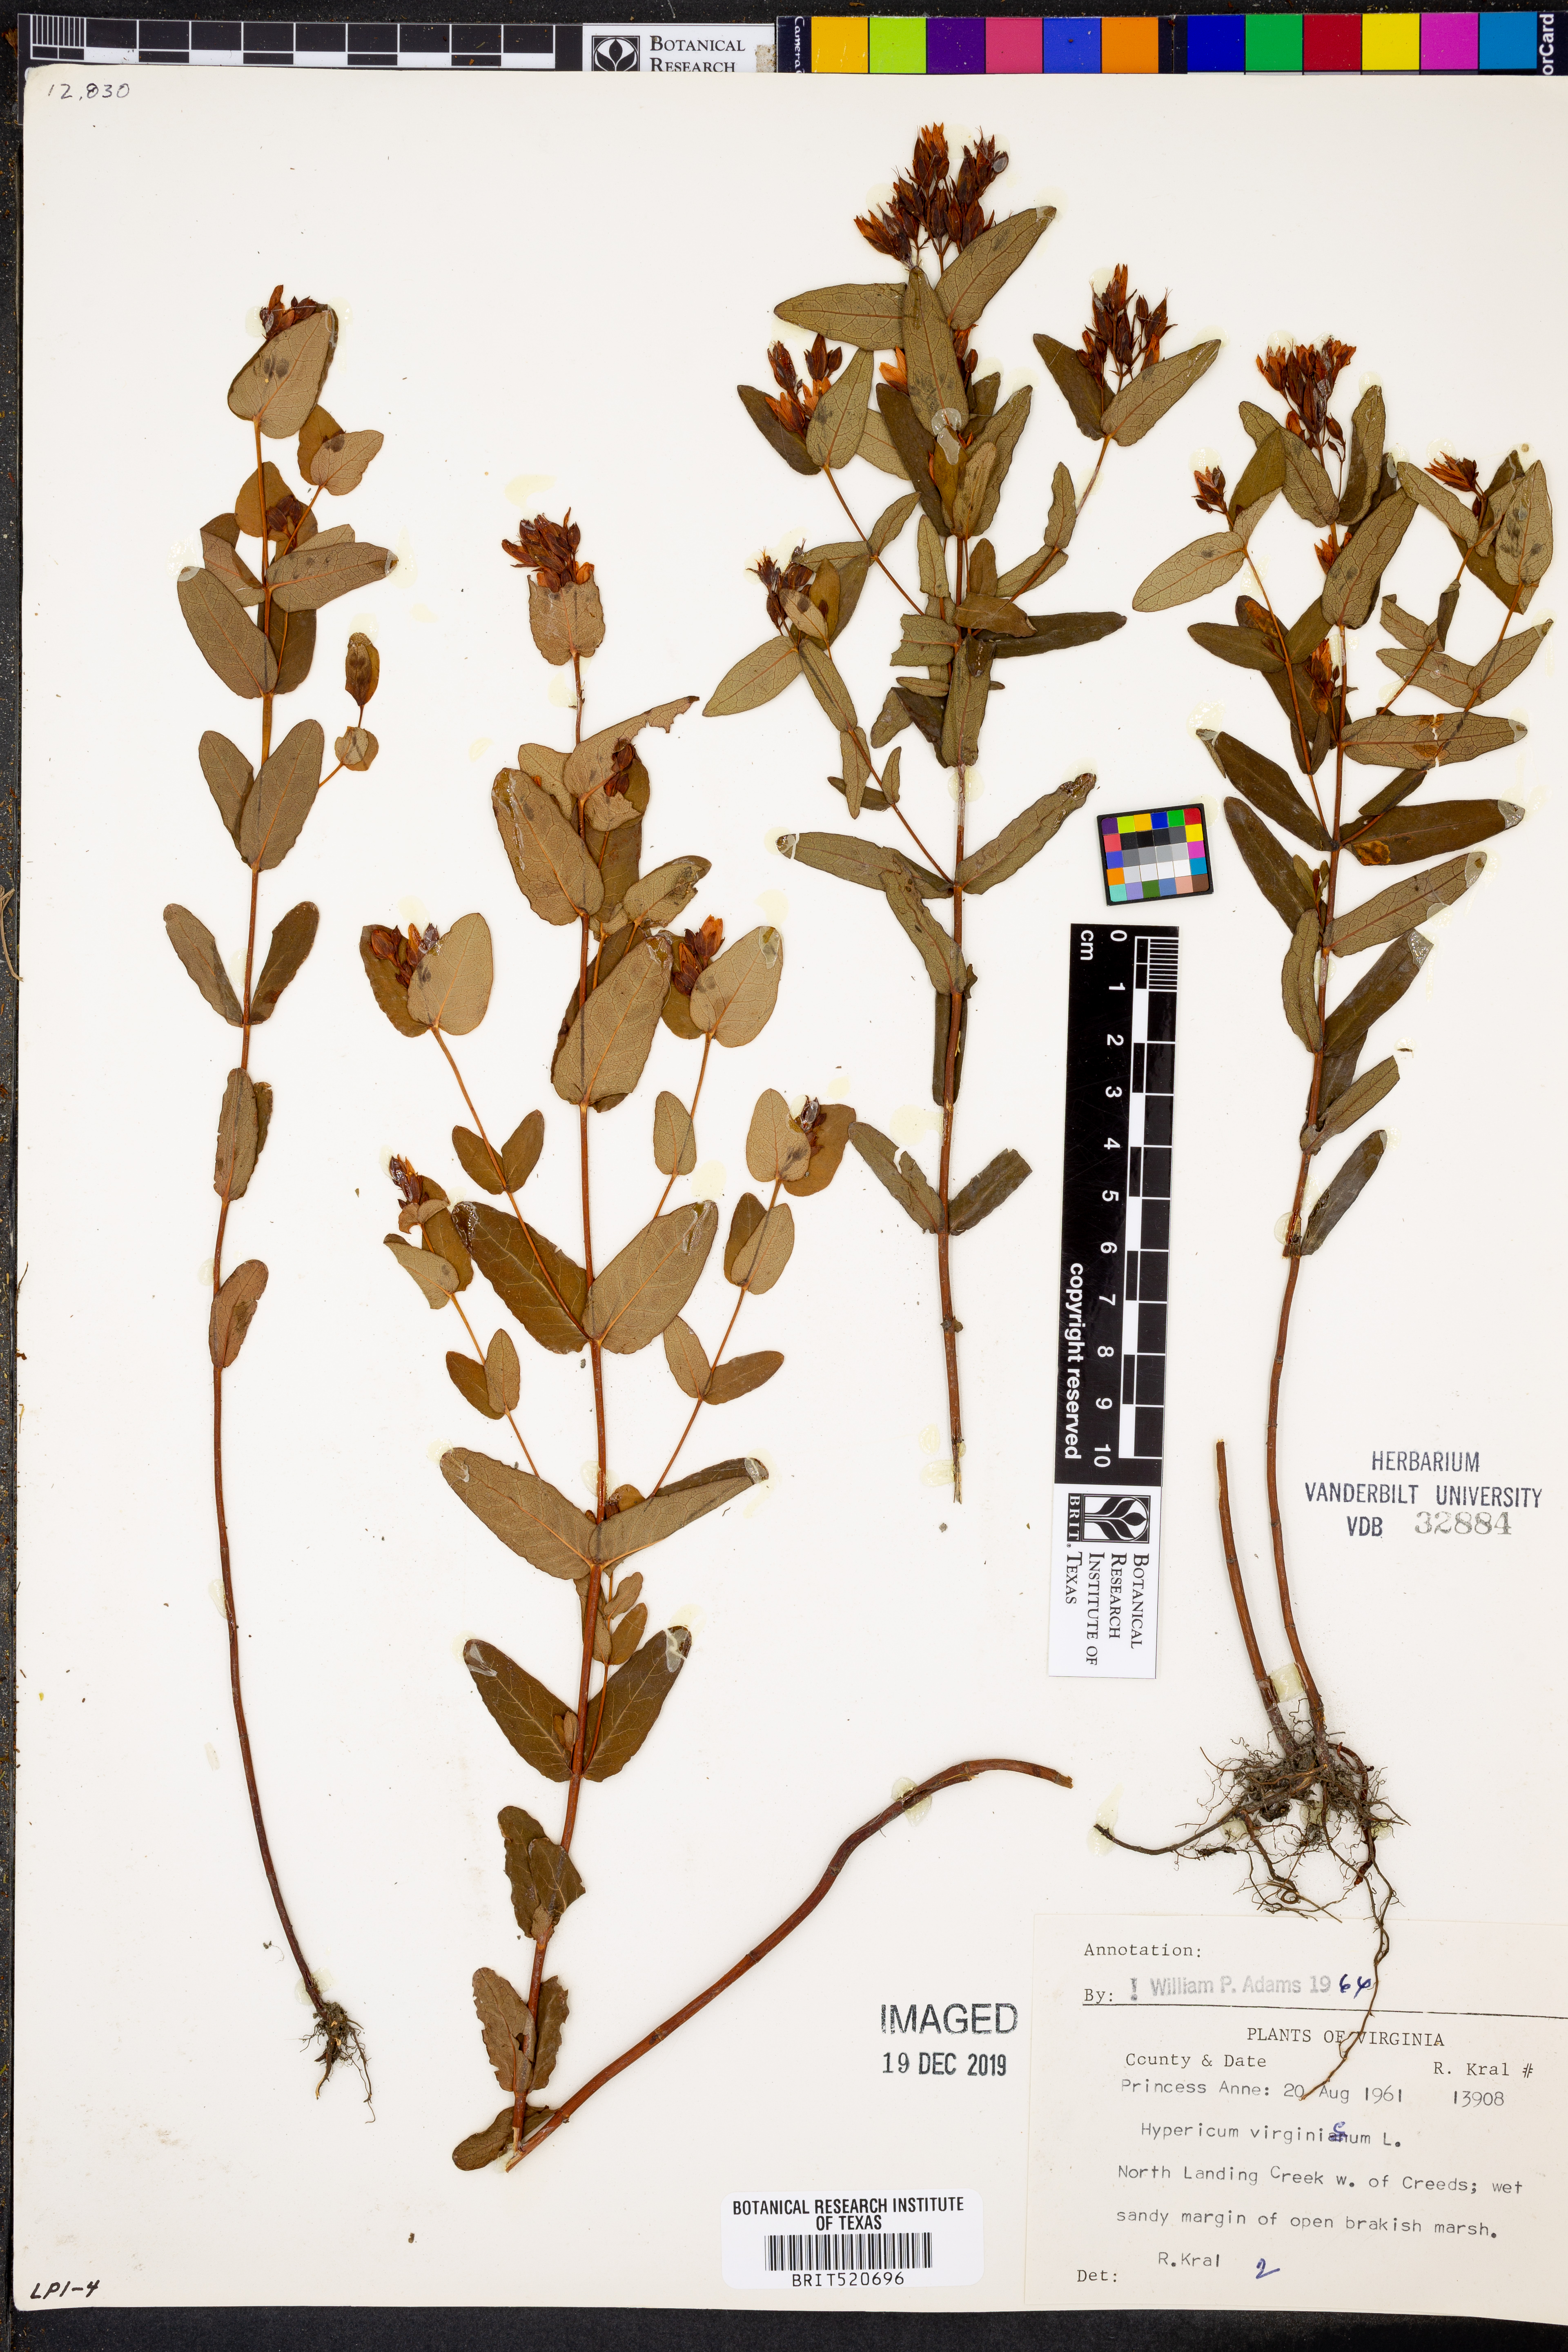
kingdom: Plantae
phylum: Tracheophyta
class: Magnoliopsida
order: Malpighiales
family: Hypericaceae
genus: Triadenum
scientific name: Triadenum virginicum
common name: Marsh st. john's-wort
